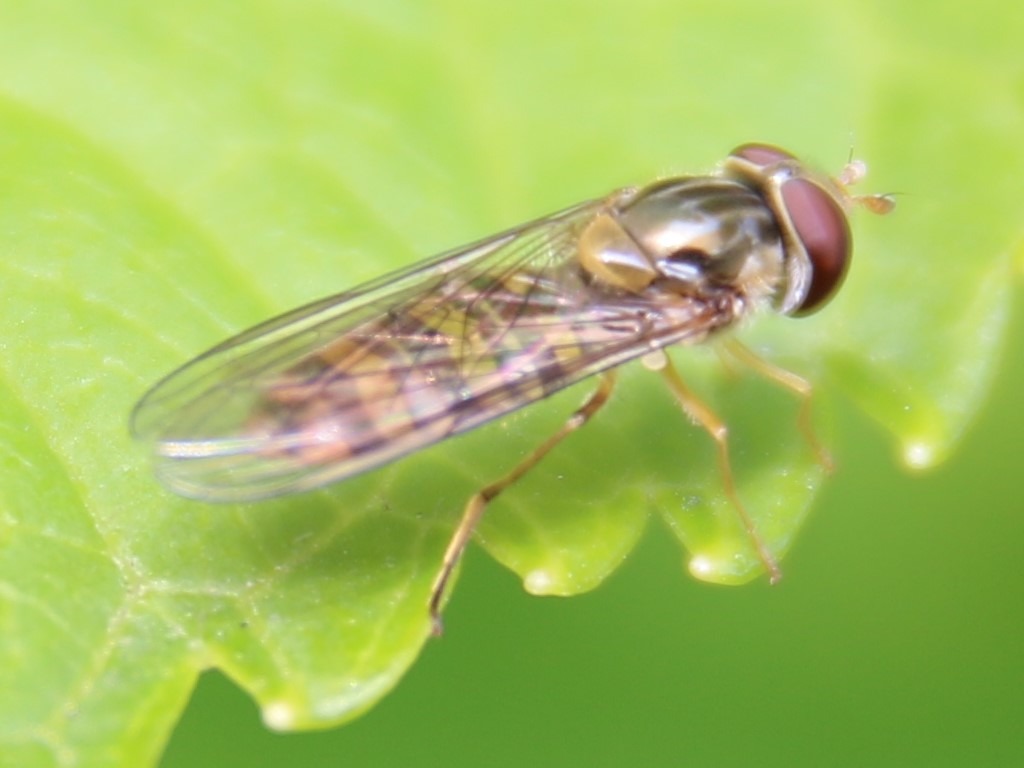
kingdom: Animalia
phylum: Arthropoda
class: Insecta
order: Diptera
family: Syrphidae
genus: Episyrphus
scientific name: Episyrphus balteatus
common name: Dobbeltbåndet svirreflue
